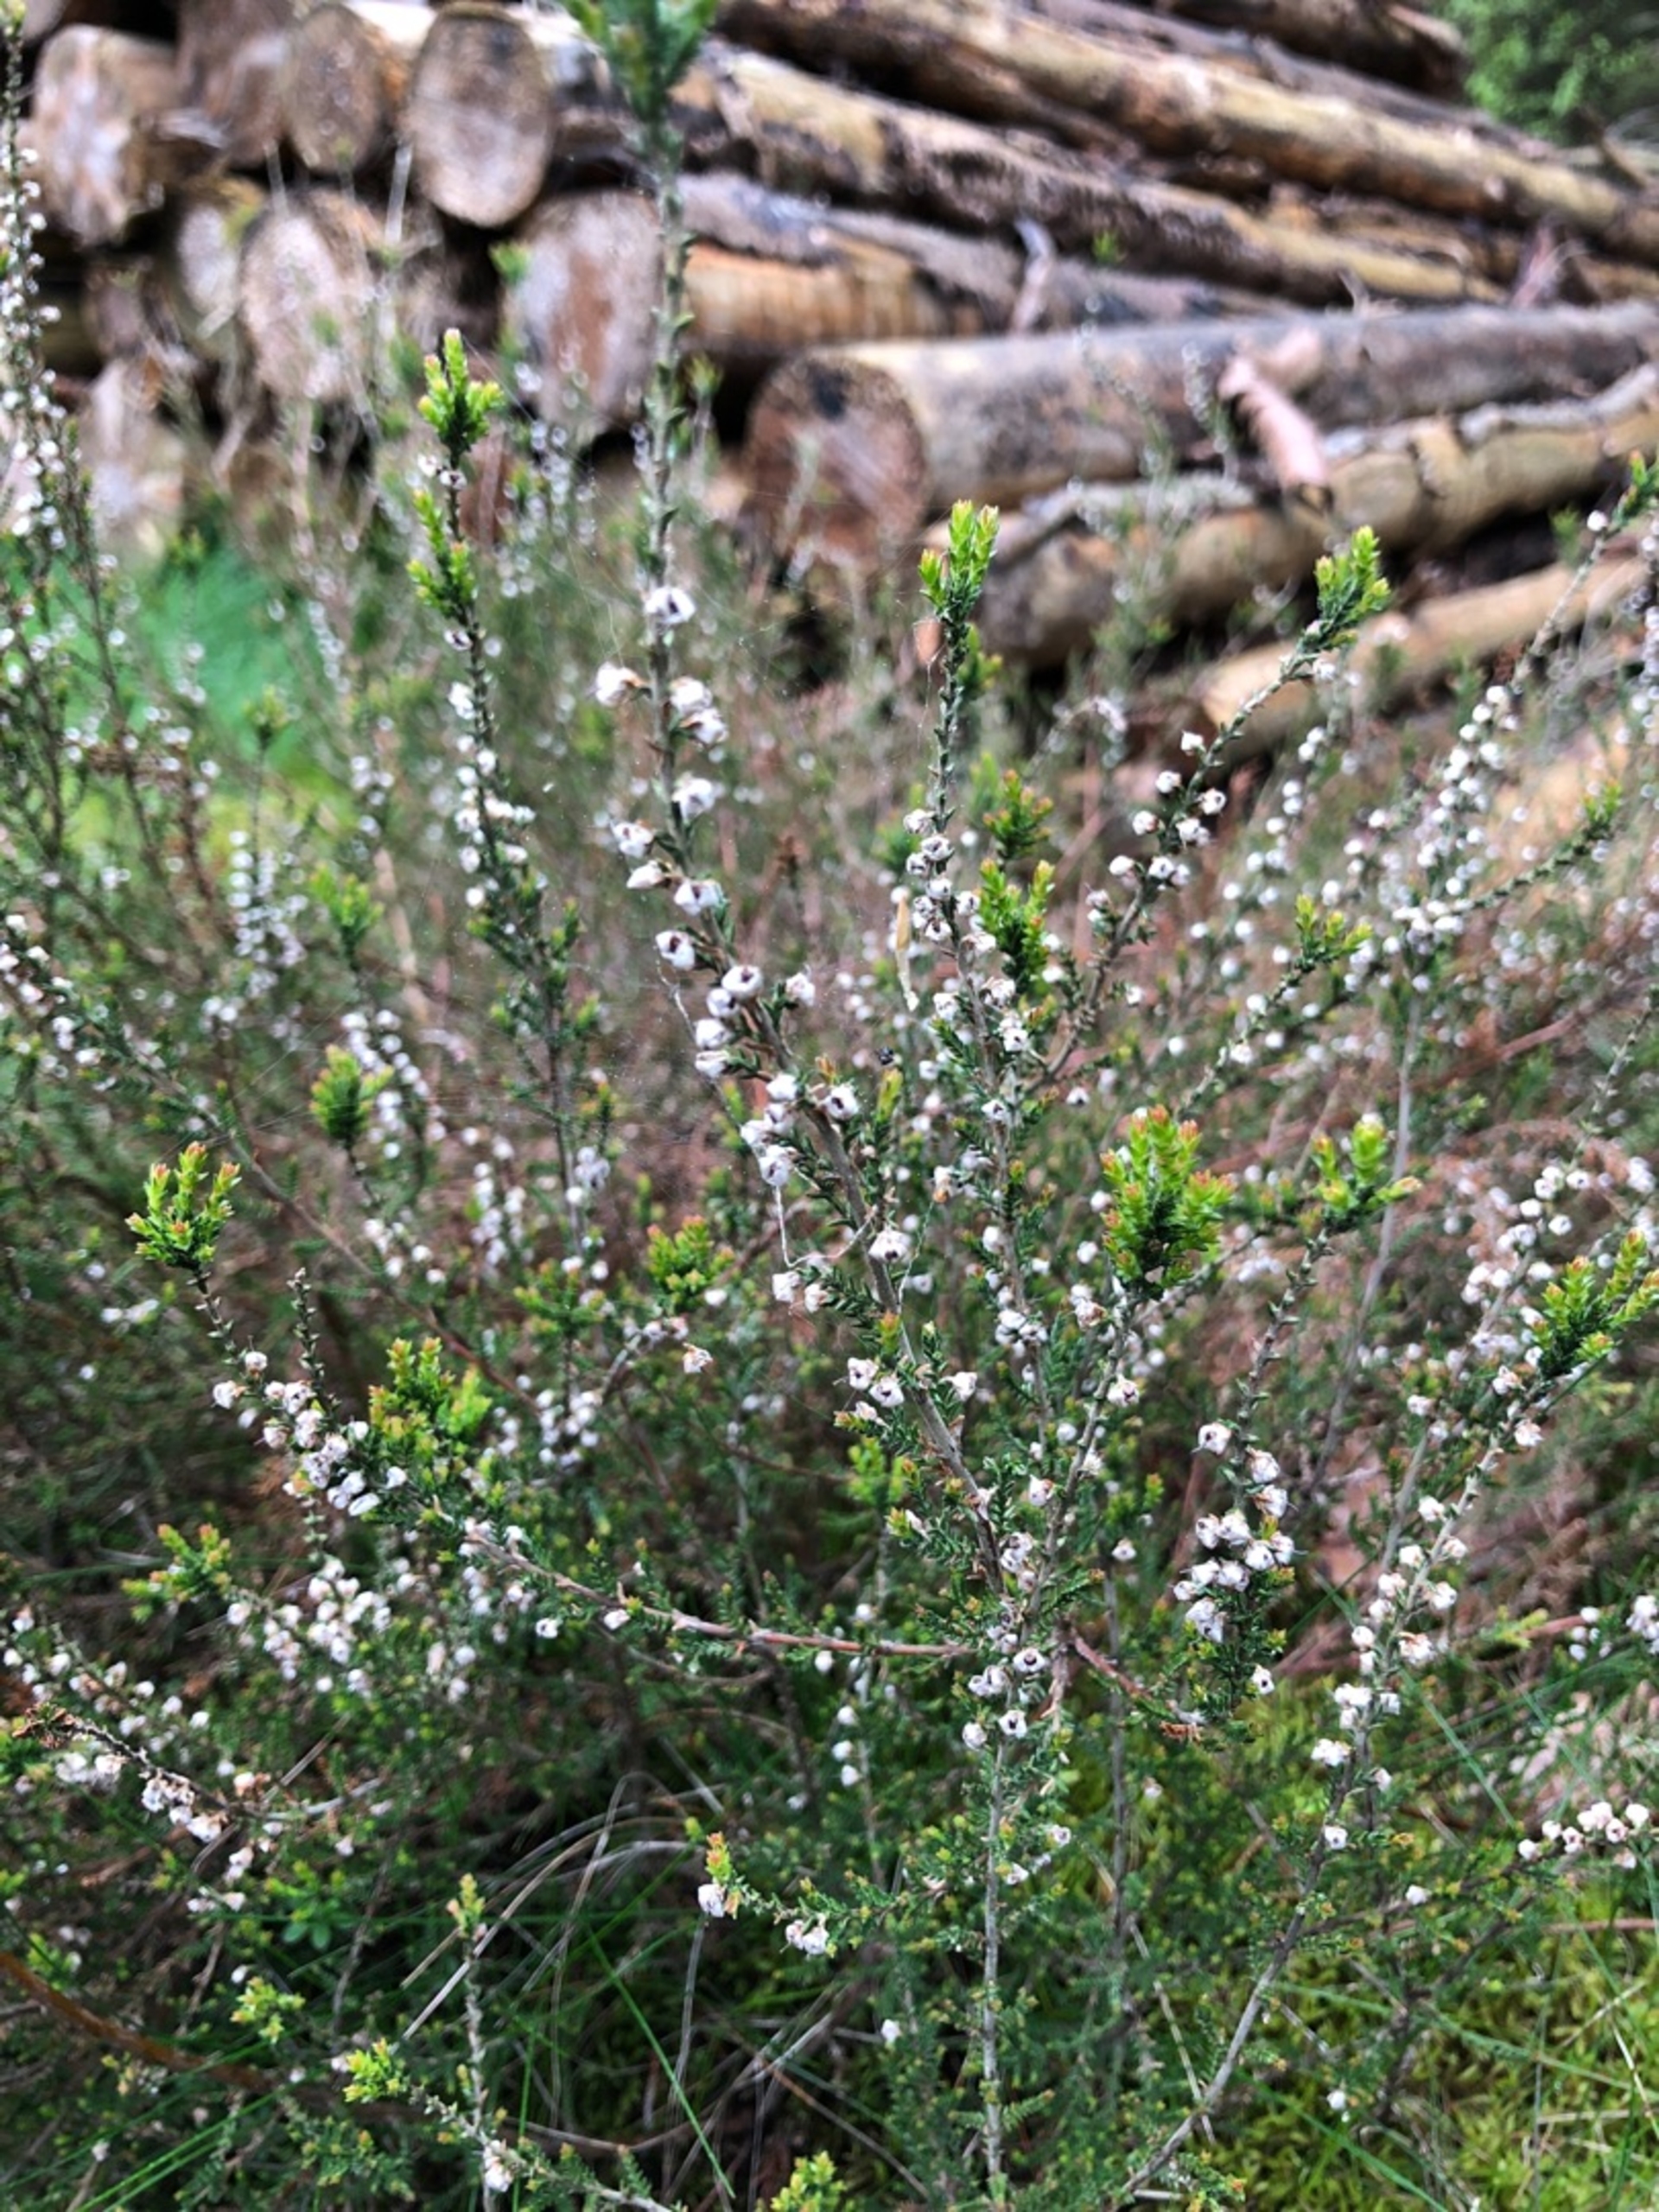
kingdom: Plantae
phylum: Tracheophyta
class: Magnoliopsida
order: Ericales
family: Ericaceae
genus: Calluna
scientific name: Calluna vulgaris
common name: Hedelyng
